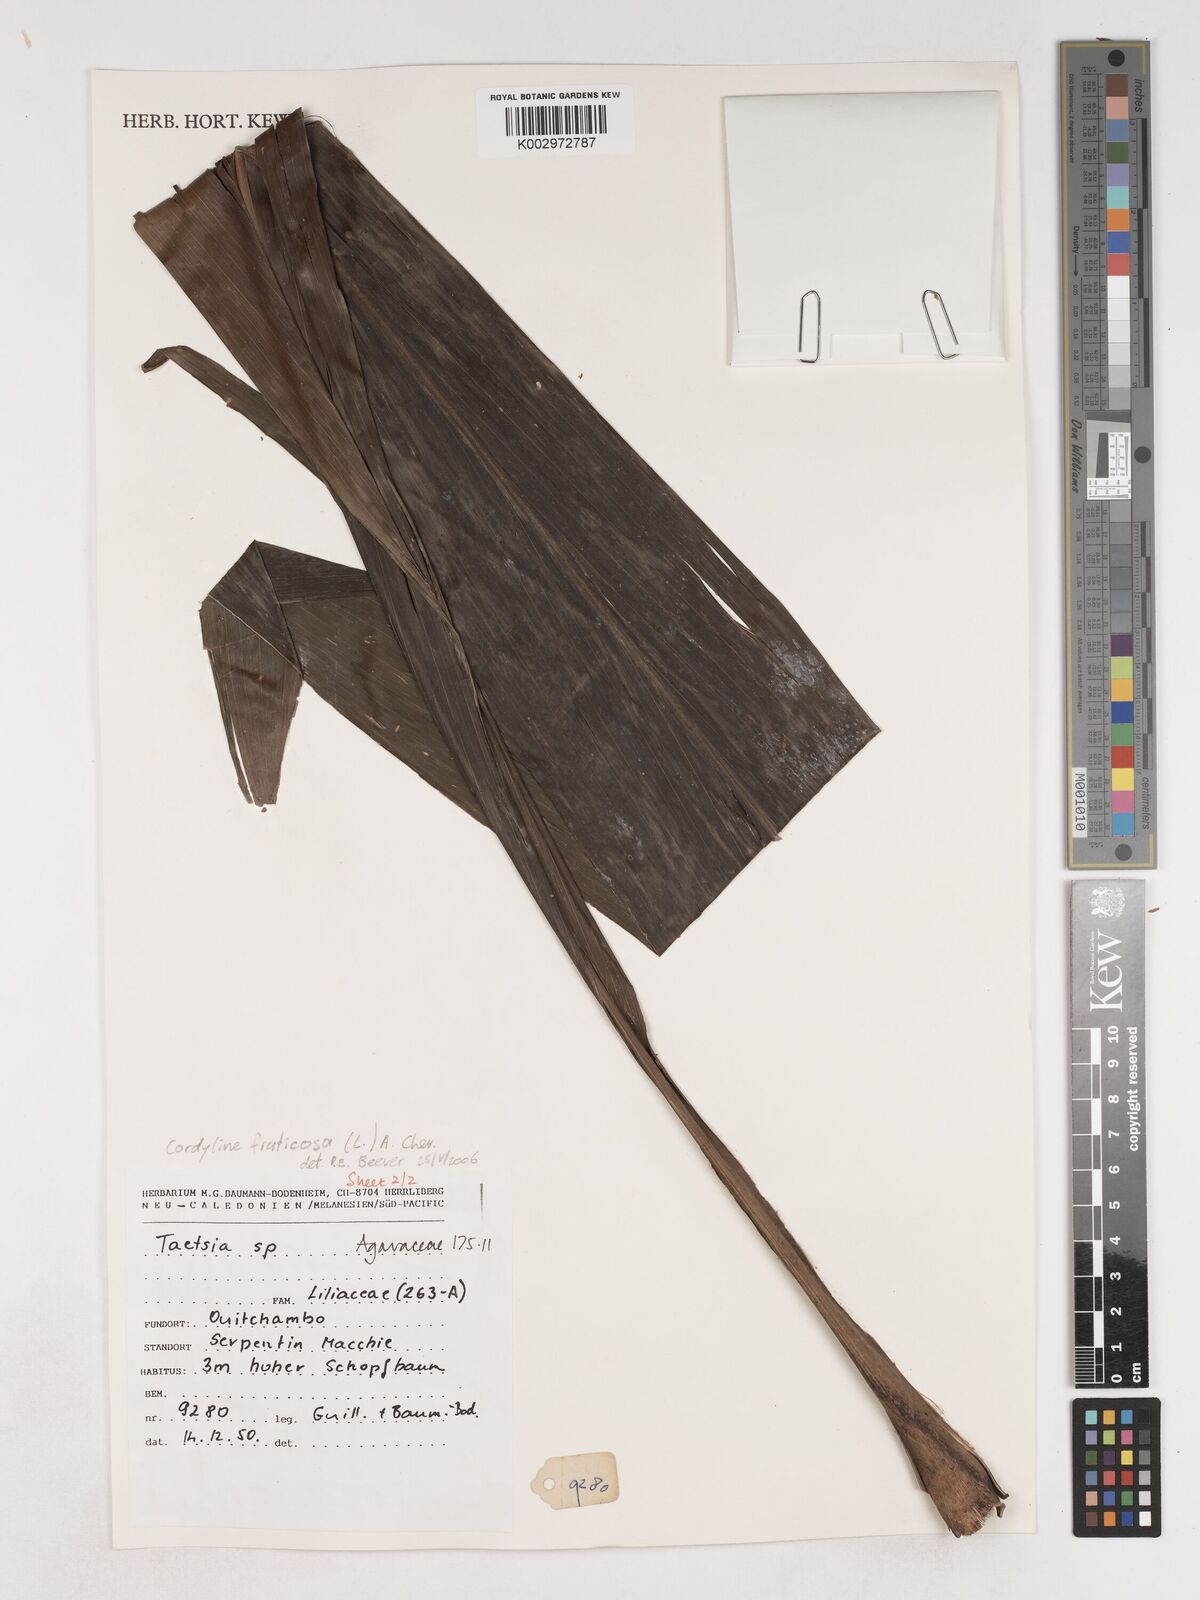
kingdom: Plantae
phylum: Tracheophyta
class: Liliopsida
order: Asparagales
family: Asparagaceae
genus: Cordyline
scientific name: Cordyline fruticosa
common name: Good-luck-plant
